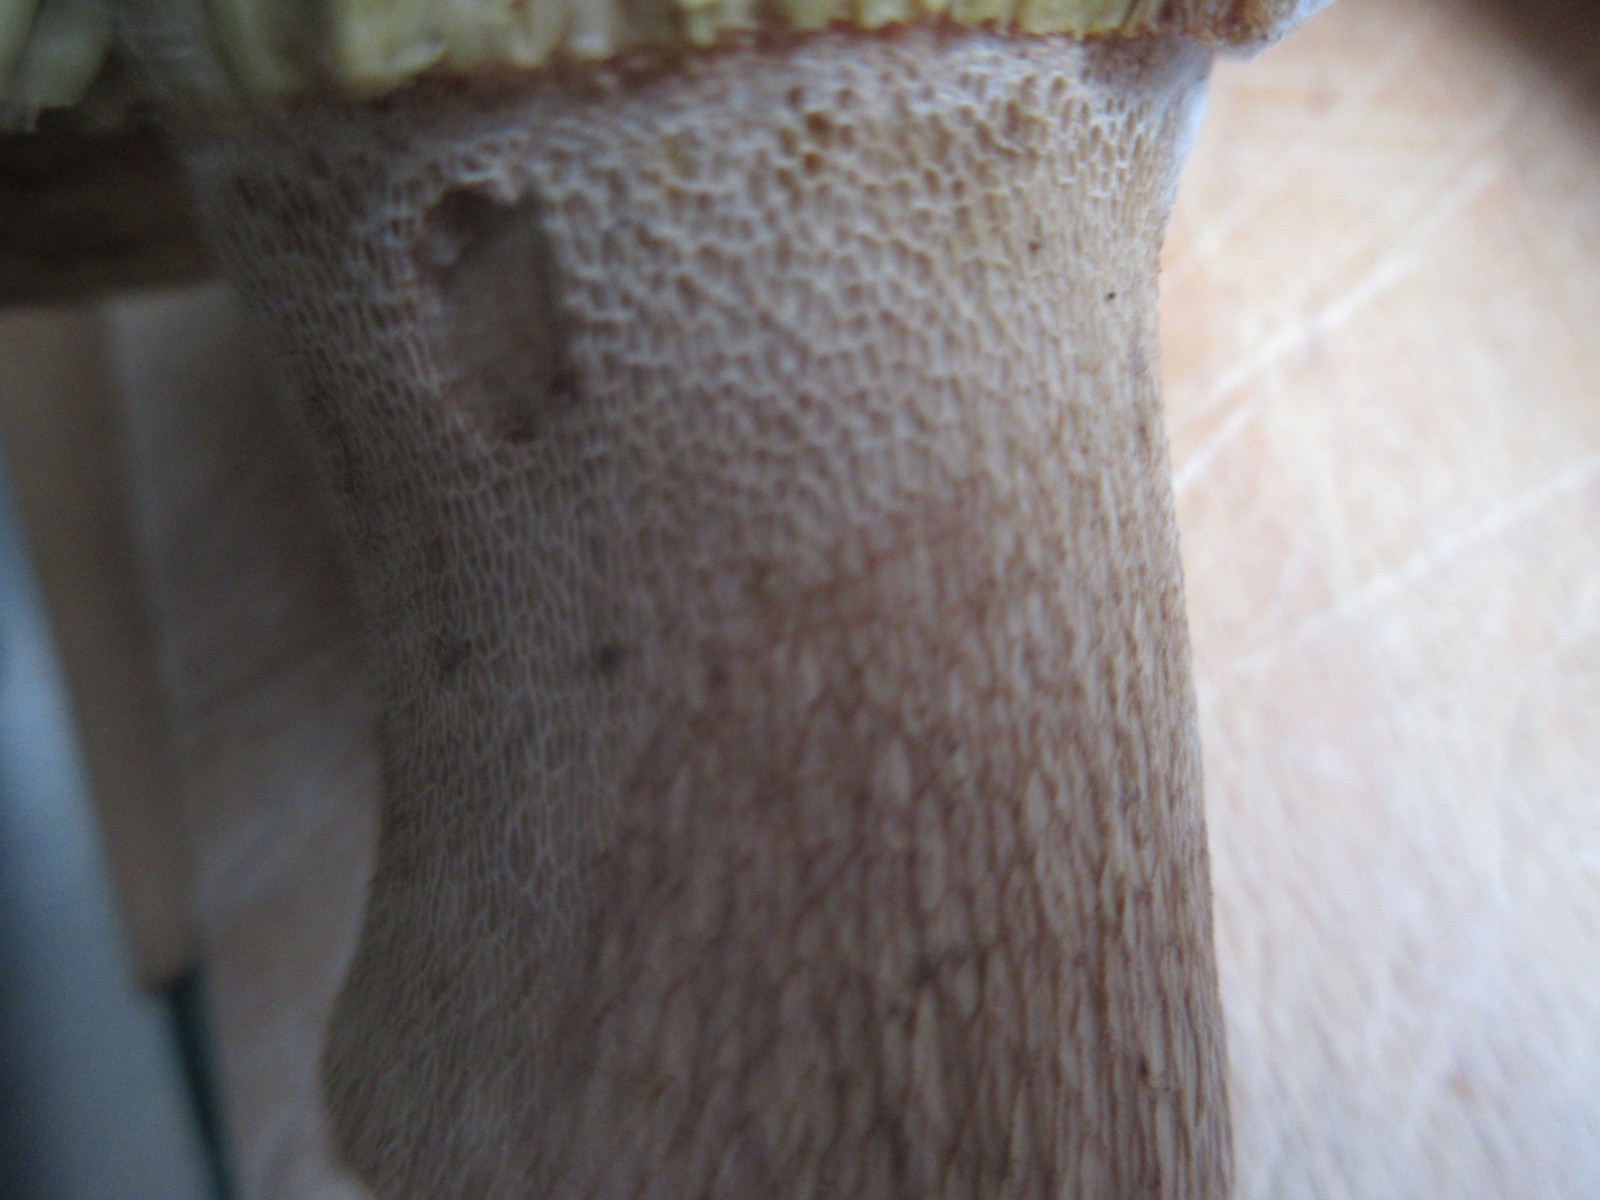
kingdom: Fungi
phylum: Basidiomycota
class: Agaricomycetes
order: Boletales
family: Boletaceae
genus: Boletus
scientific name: Boletus reticulatus
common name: sommer-rørhat
